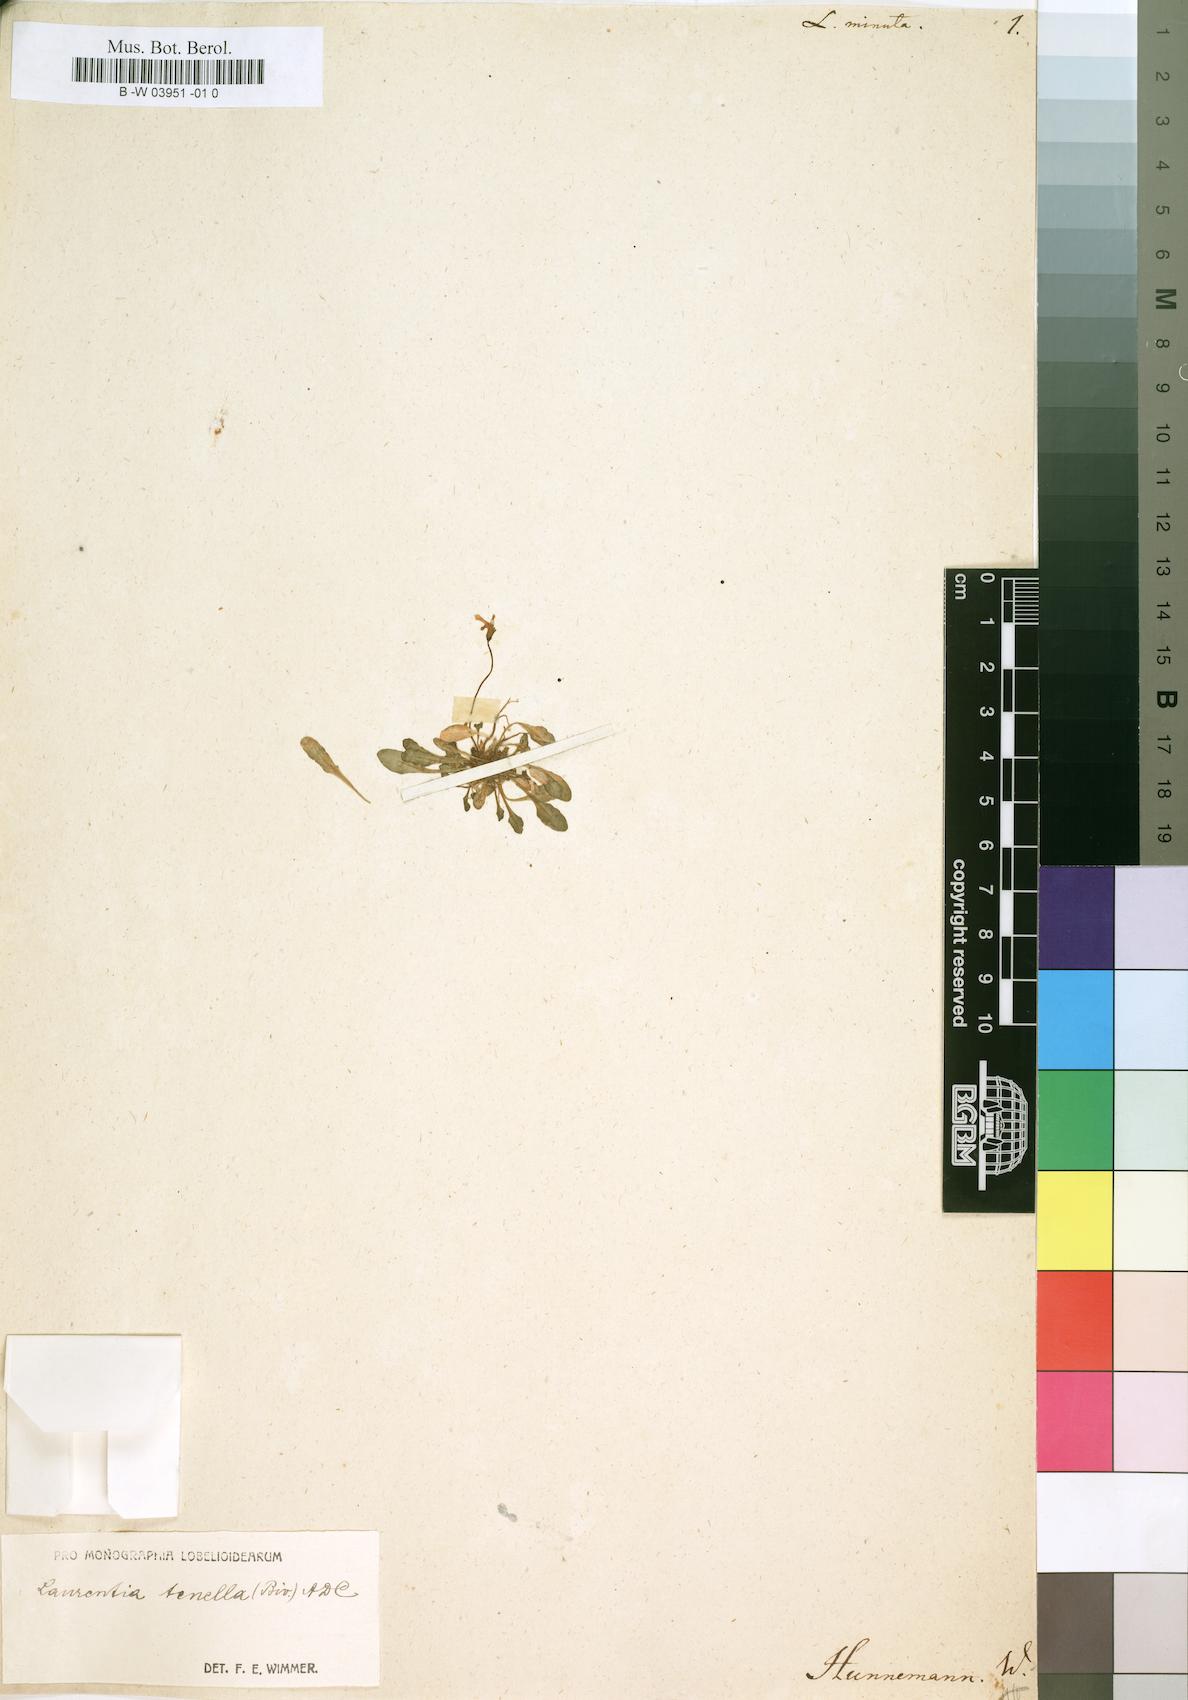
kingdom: Plantae
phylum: Tracheophyta
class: Magnoliopsida
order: Asterales
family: Campanulaceae
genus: Lobelia
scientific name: Lobelia minuta
